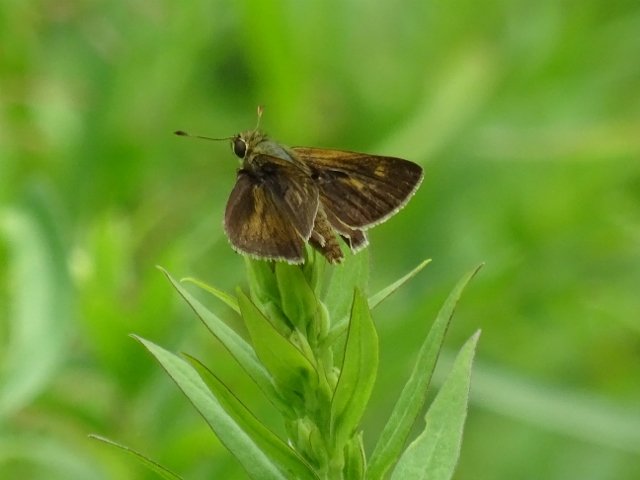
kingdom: Animalia
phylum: Arthropoda
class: Insecta
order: Lepidoptera
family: Hesperiidae
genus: Polites
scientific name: Polites egeremet
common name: Northern Broken-Dash
